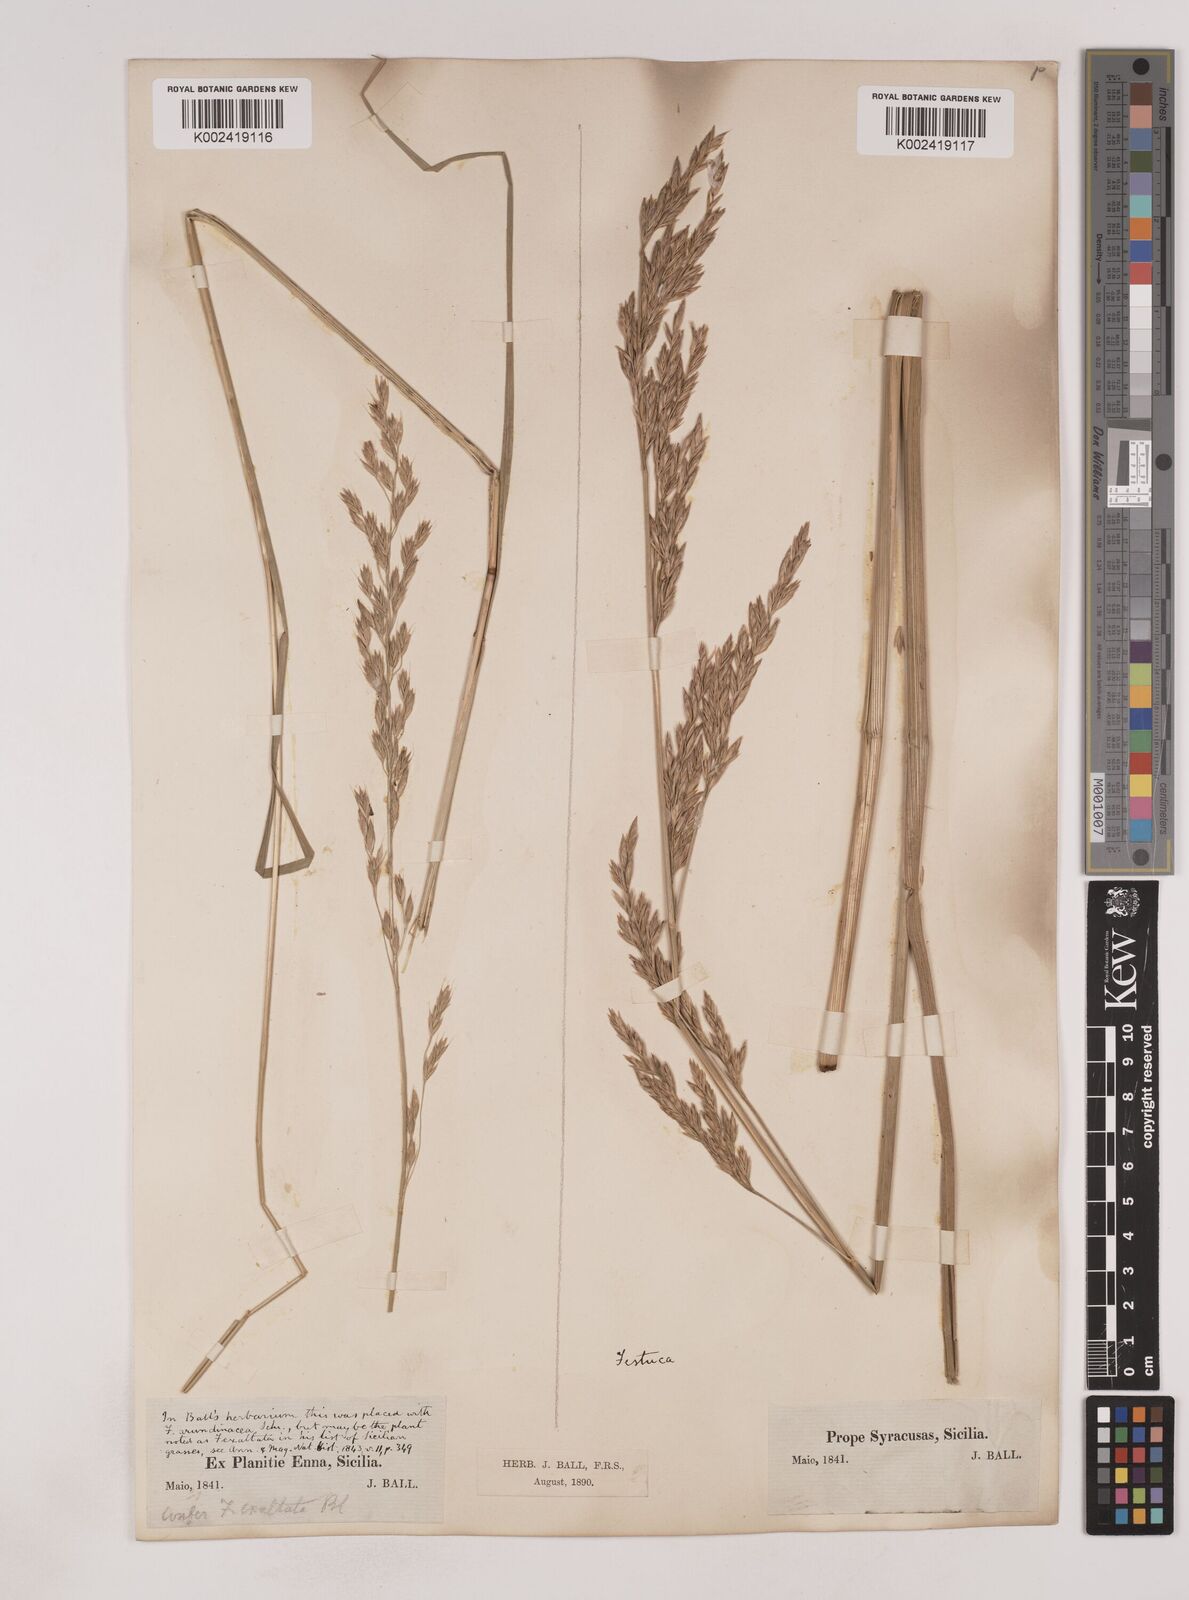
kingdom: Plantae
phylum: Tracheophyta
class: Liliopsida
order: Poales
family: Poaceae
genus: Festuca
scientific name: Festuca drymeja
